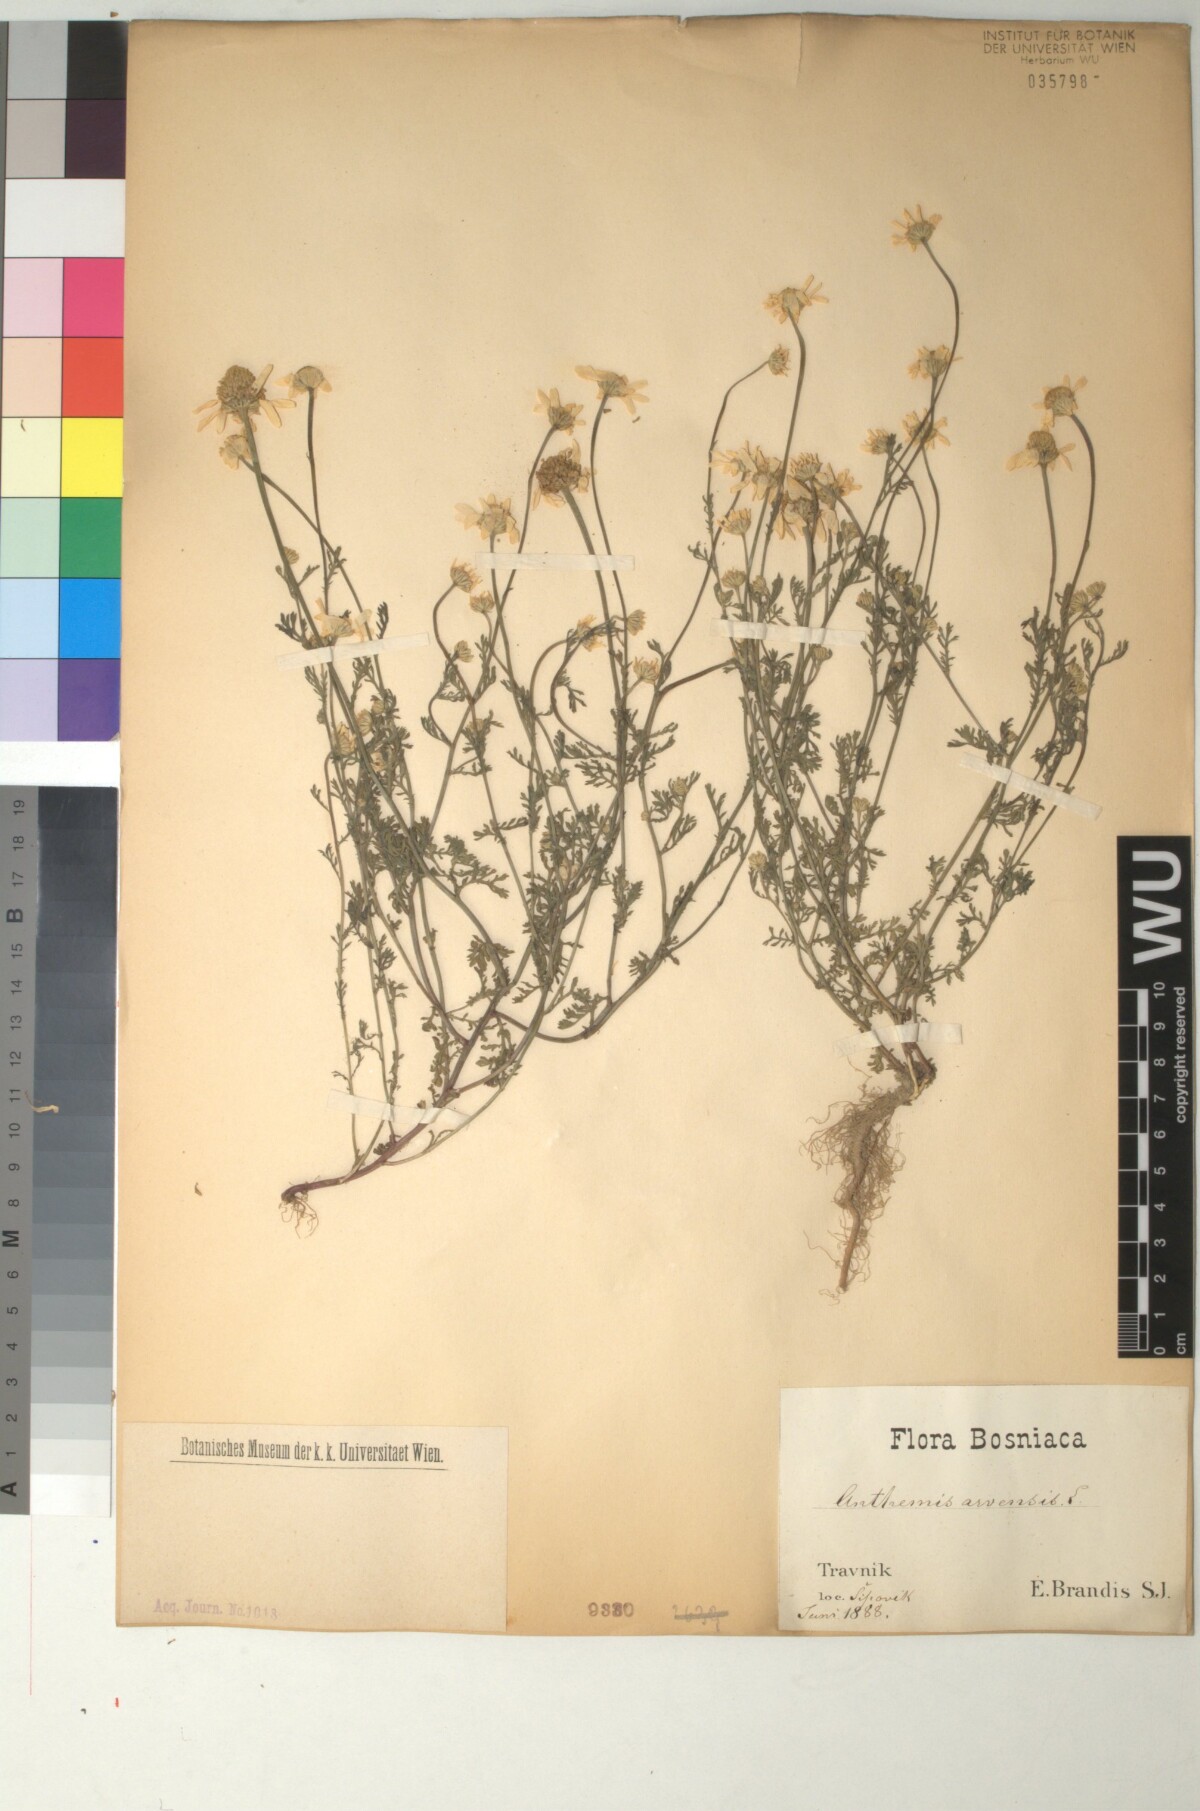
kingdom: Plantae
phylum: Tracheophyta
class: Magnoliopsida
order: Asterales
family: Asteraceae
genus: Anthemis
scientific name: Anthemis arvensis
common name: Corn chamomile
